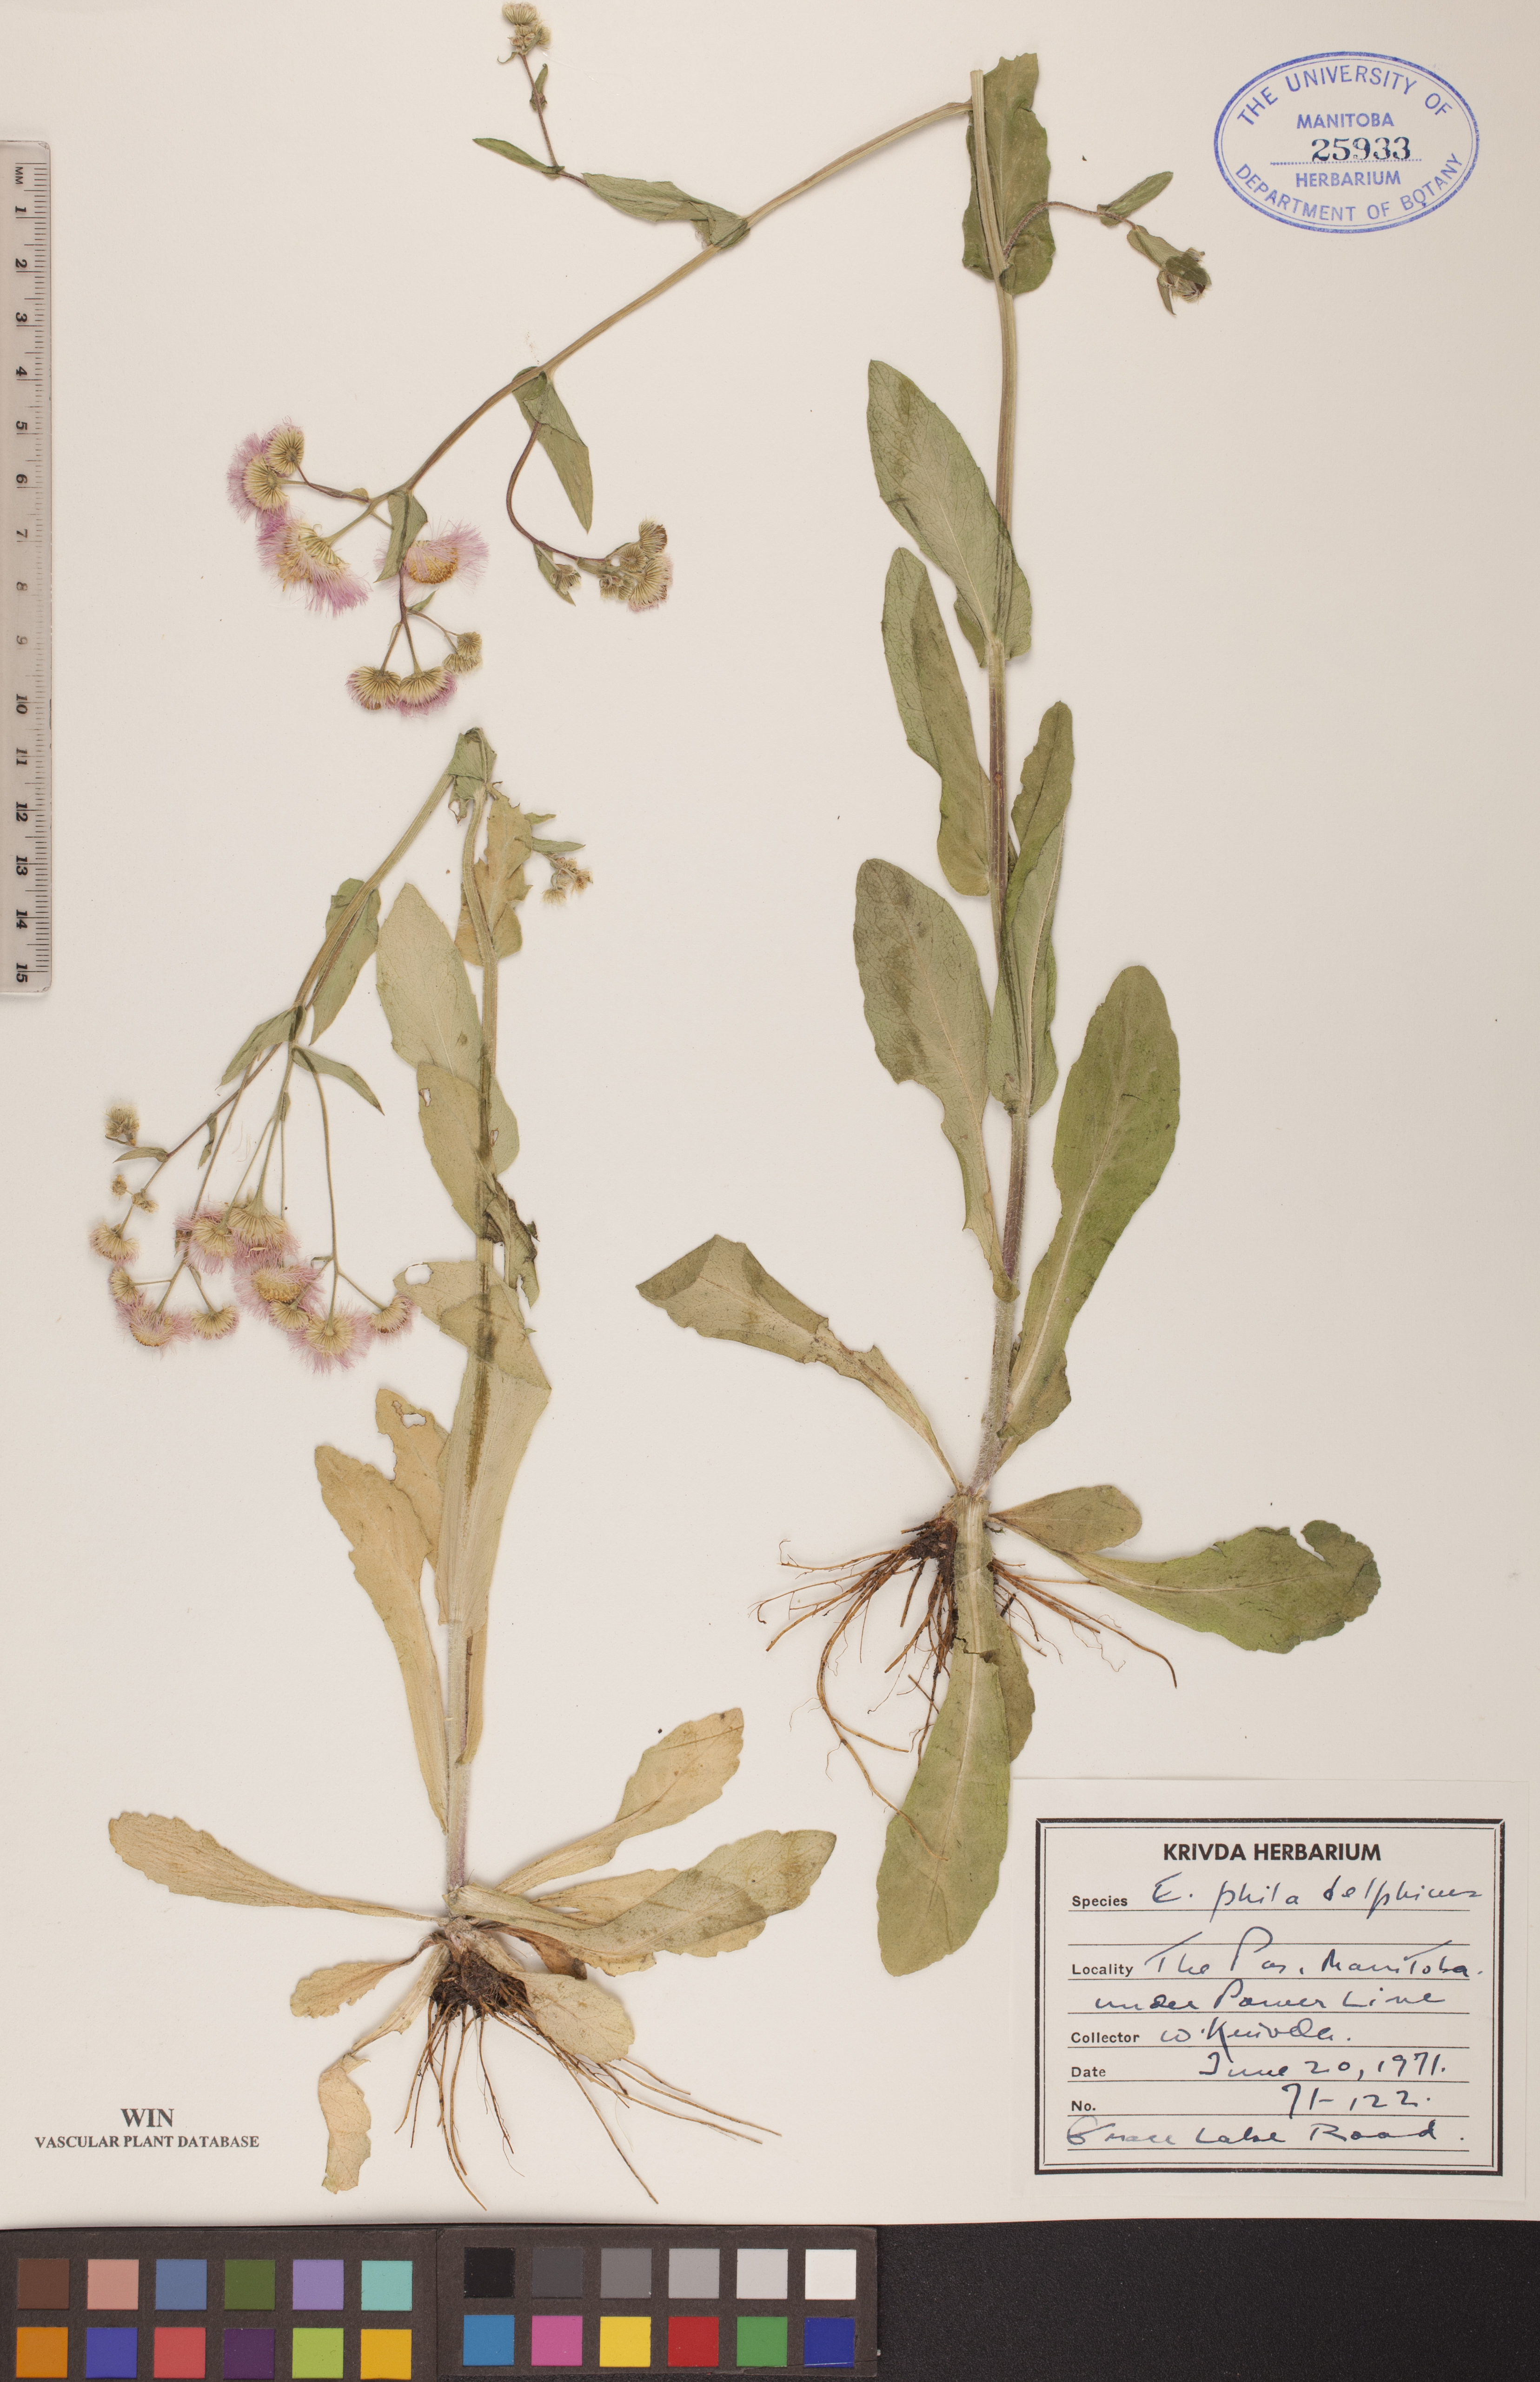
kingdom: Plantae
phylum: Tracheophyta
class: Magnoliopsida
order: Asterales
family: Asteraceae
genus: Erigeron
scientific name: Erigeron philadelphicus
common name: Robin's-plantain
